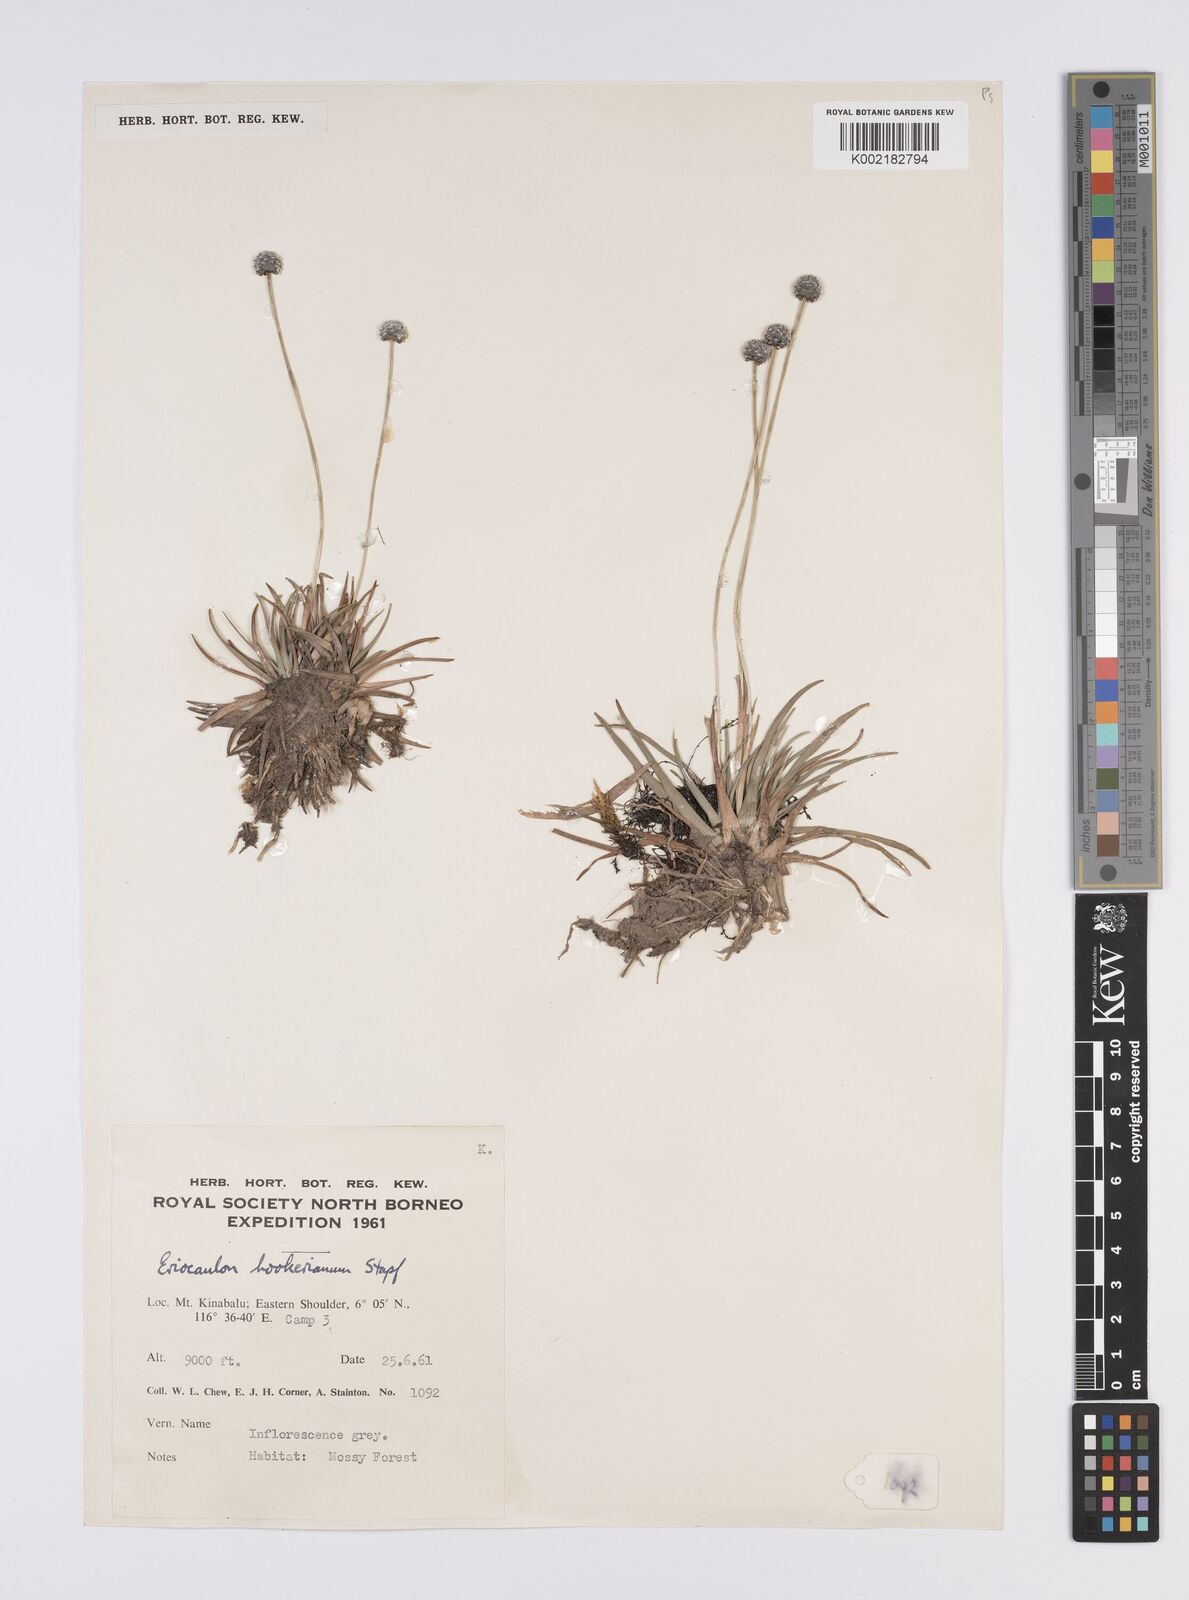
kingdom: Plantae
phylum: Tracheophyta
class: Liliopsida
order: Poales
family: Eriocaulaceae
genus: Eriocaulon
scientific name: Eriocaulon hookerianum
